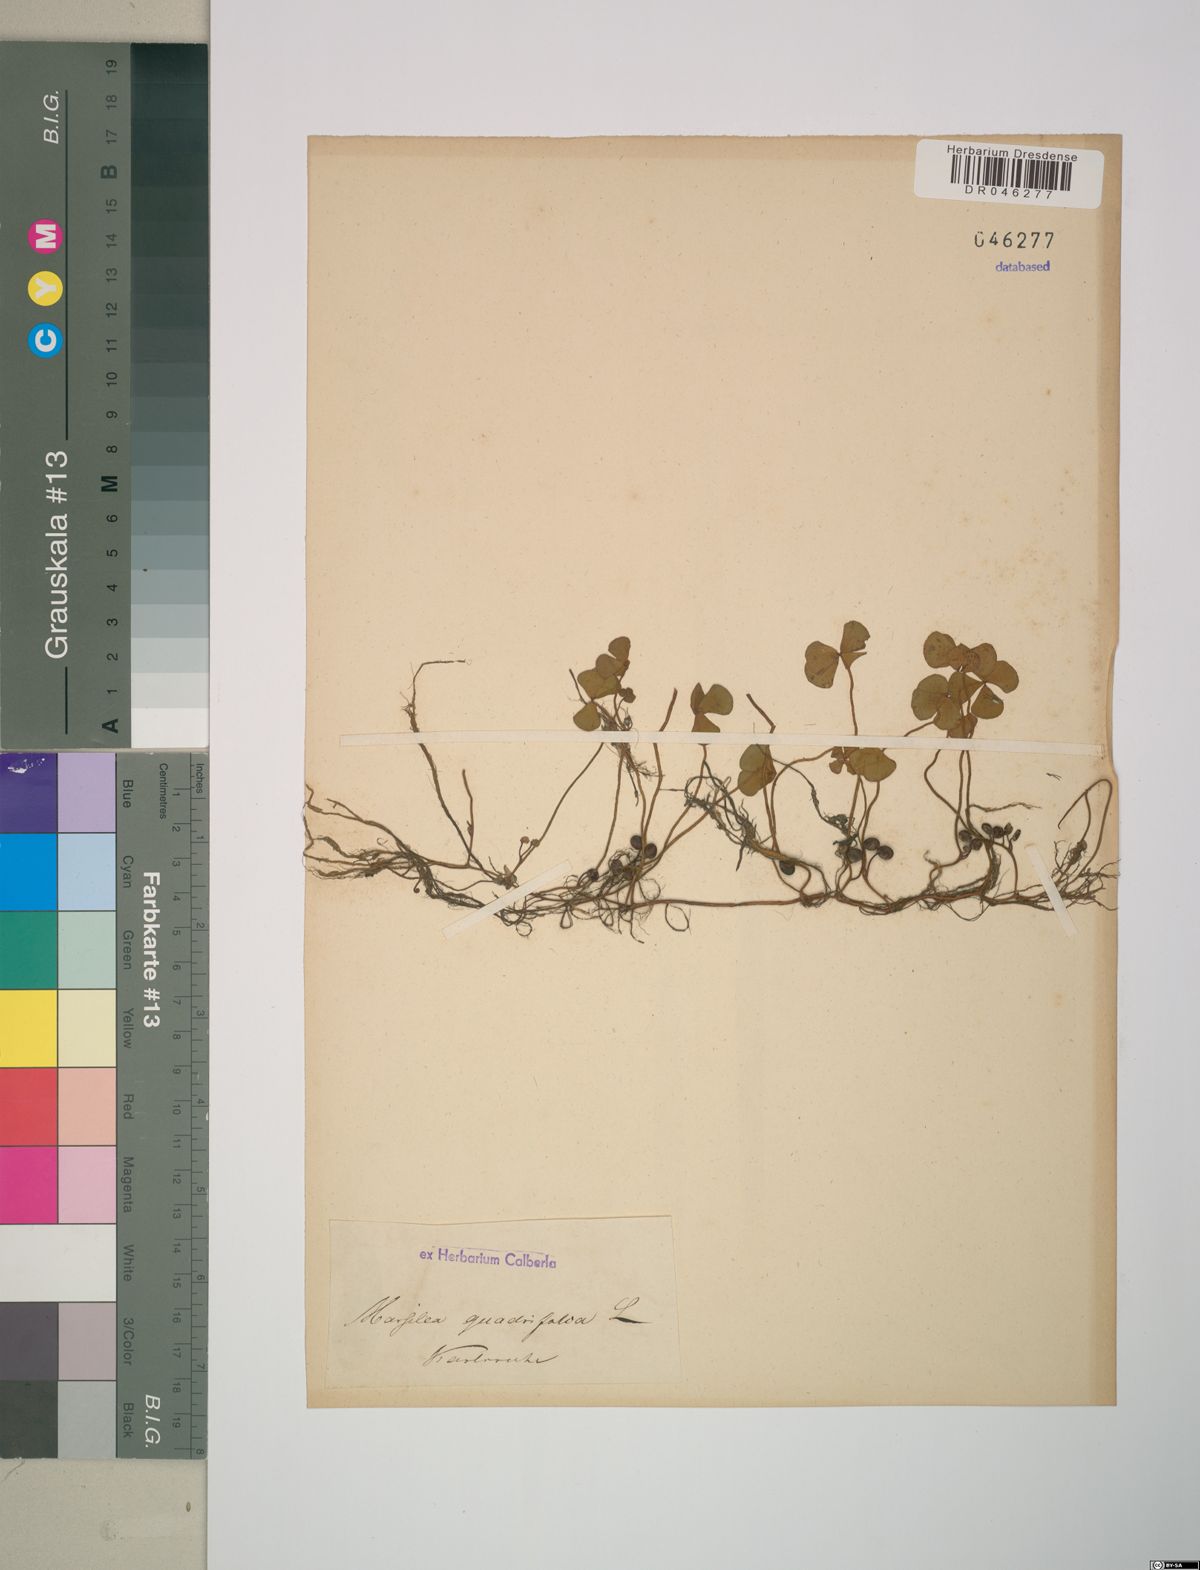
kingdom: Plantae
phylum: Tracheophyta
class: Polypodiopsida
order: Salviniales
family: Marsileaceae
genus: Marsilea
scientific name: Marsilea quadrifolia
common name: Water shamrock
